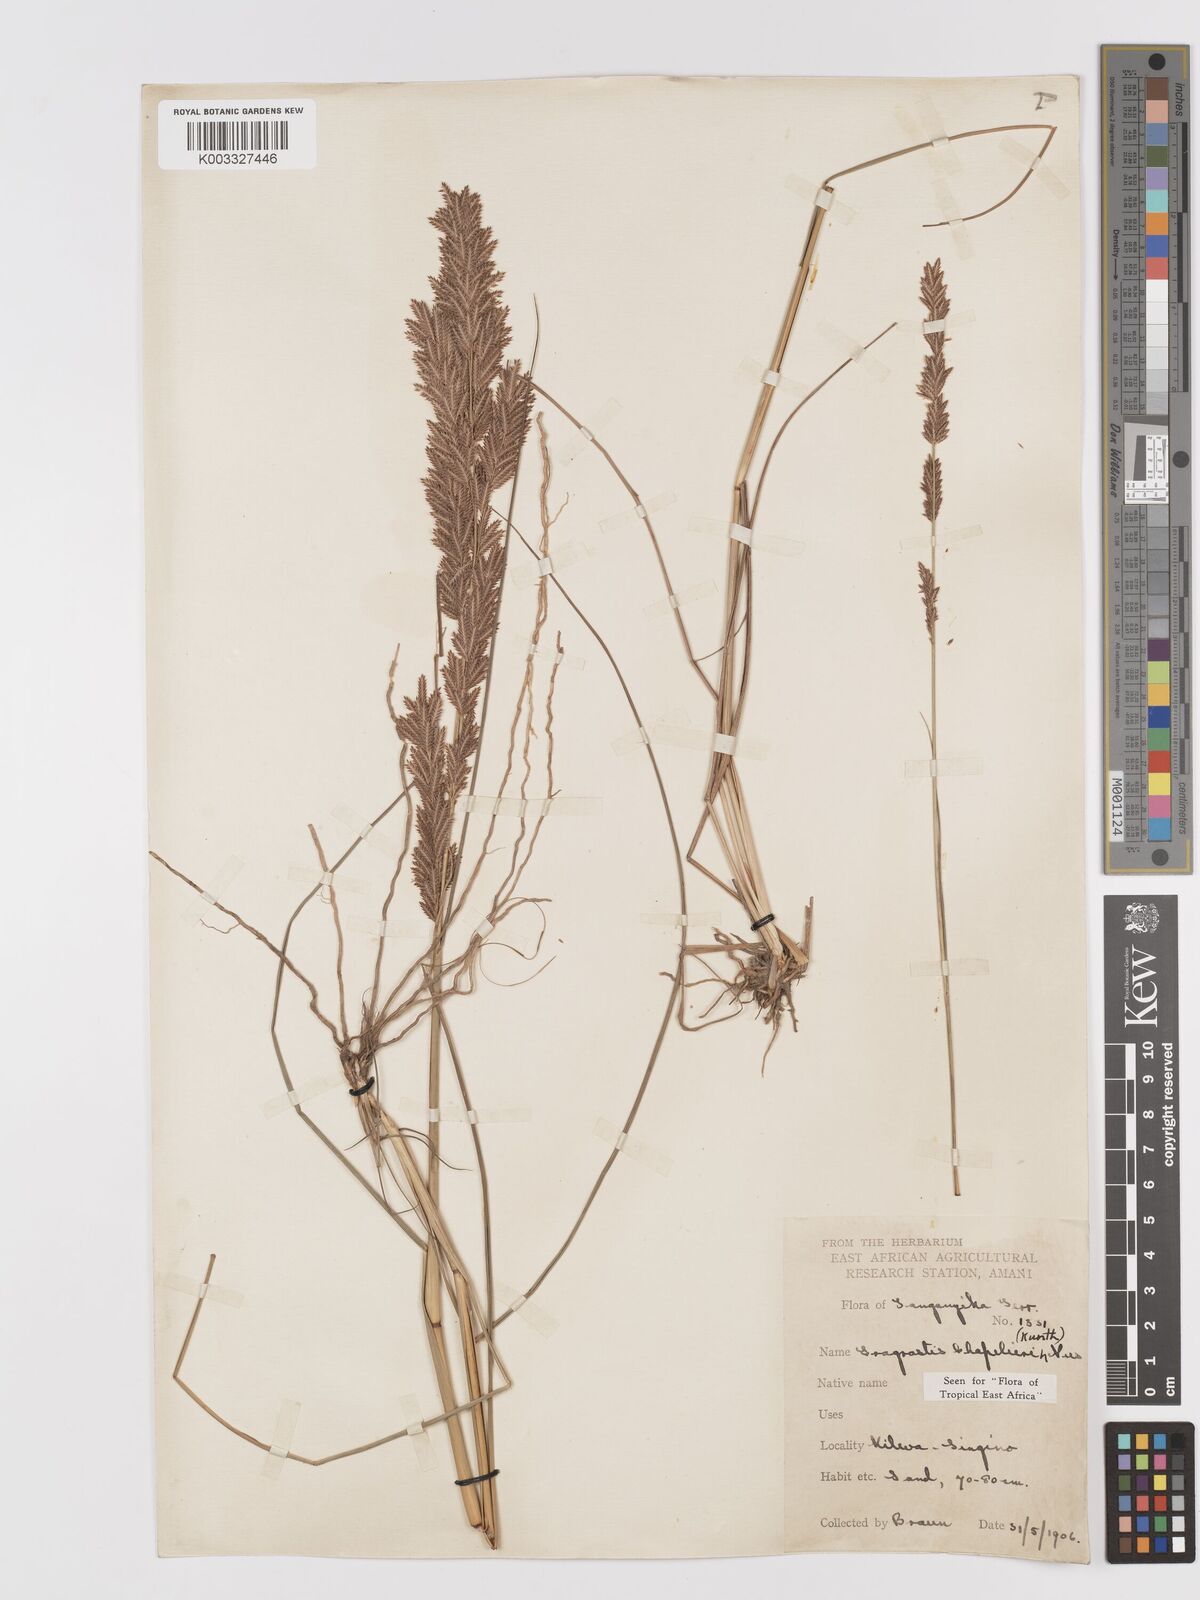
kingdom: Plantae
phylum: Tracheophyta
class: Liliopsida
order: Poales
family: Poaceae
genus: Eragrostis
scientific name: Eragrostis chapelieri
